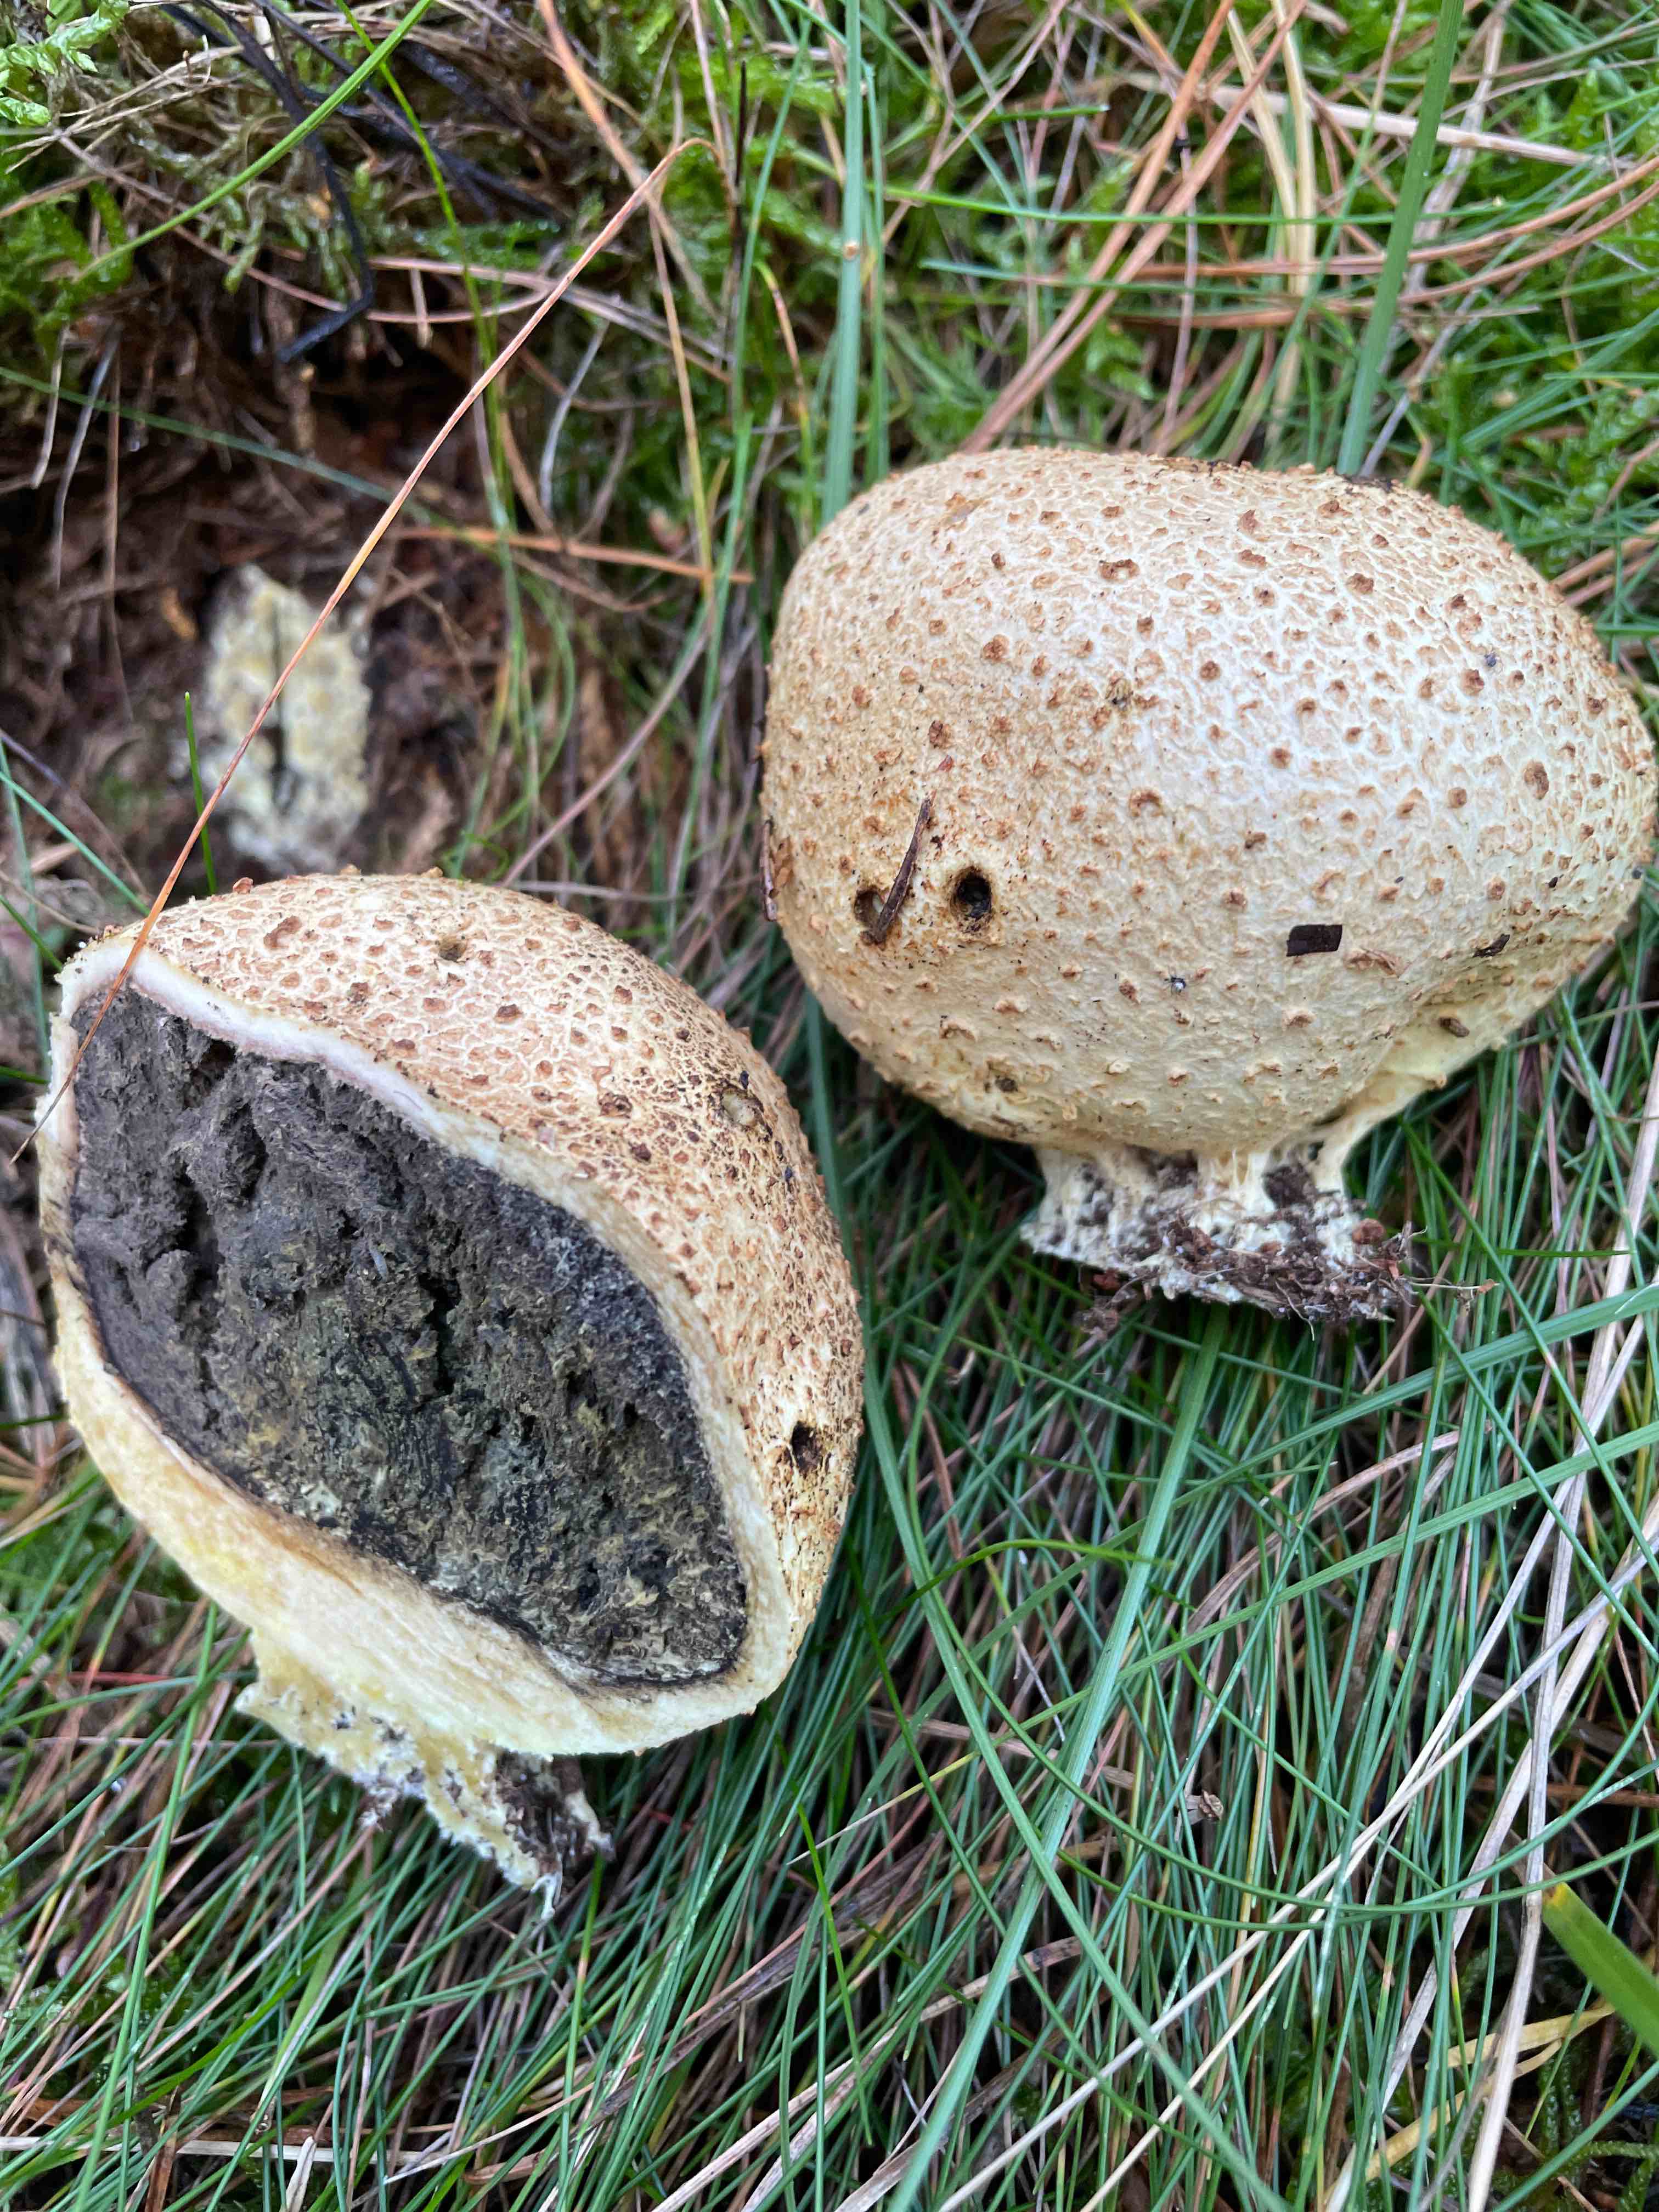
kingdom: Fungi
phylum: Basidiomycota
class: Agaricomycetes
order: Boletales
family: Sclerodermataceae
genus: Scleroderma
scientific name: Scleroderma citrinum
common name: almindelig bruskbold
